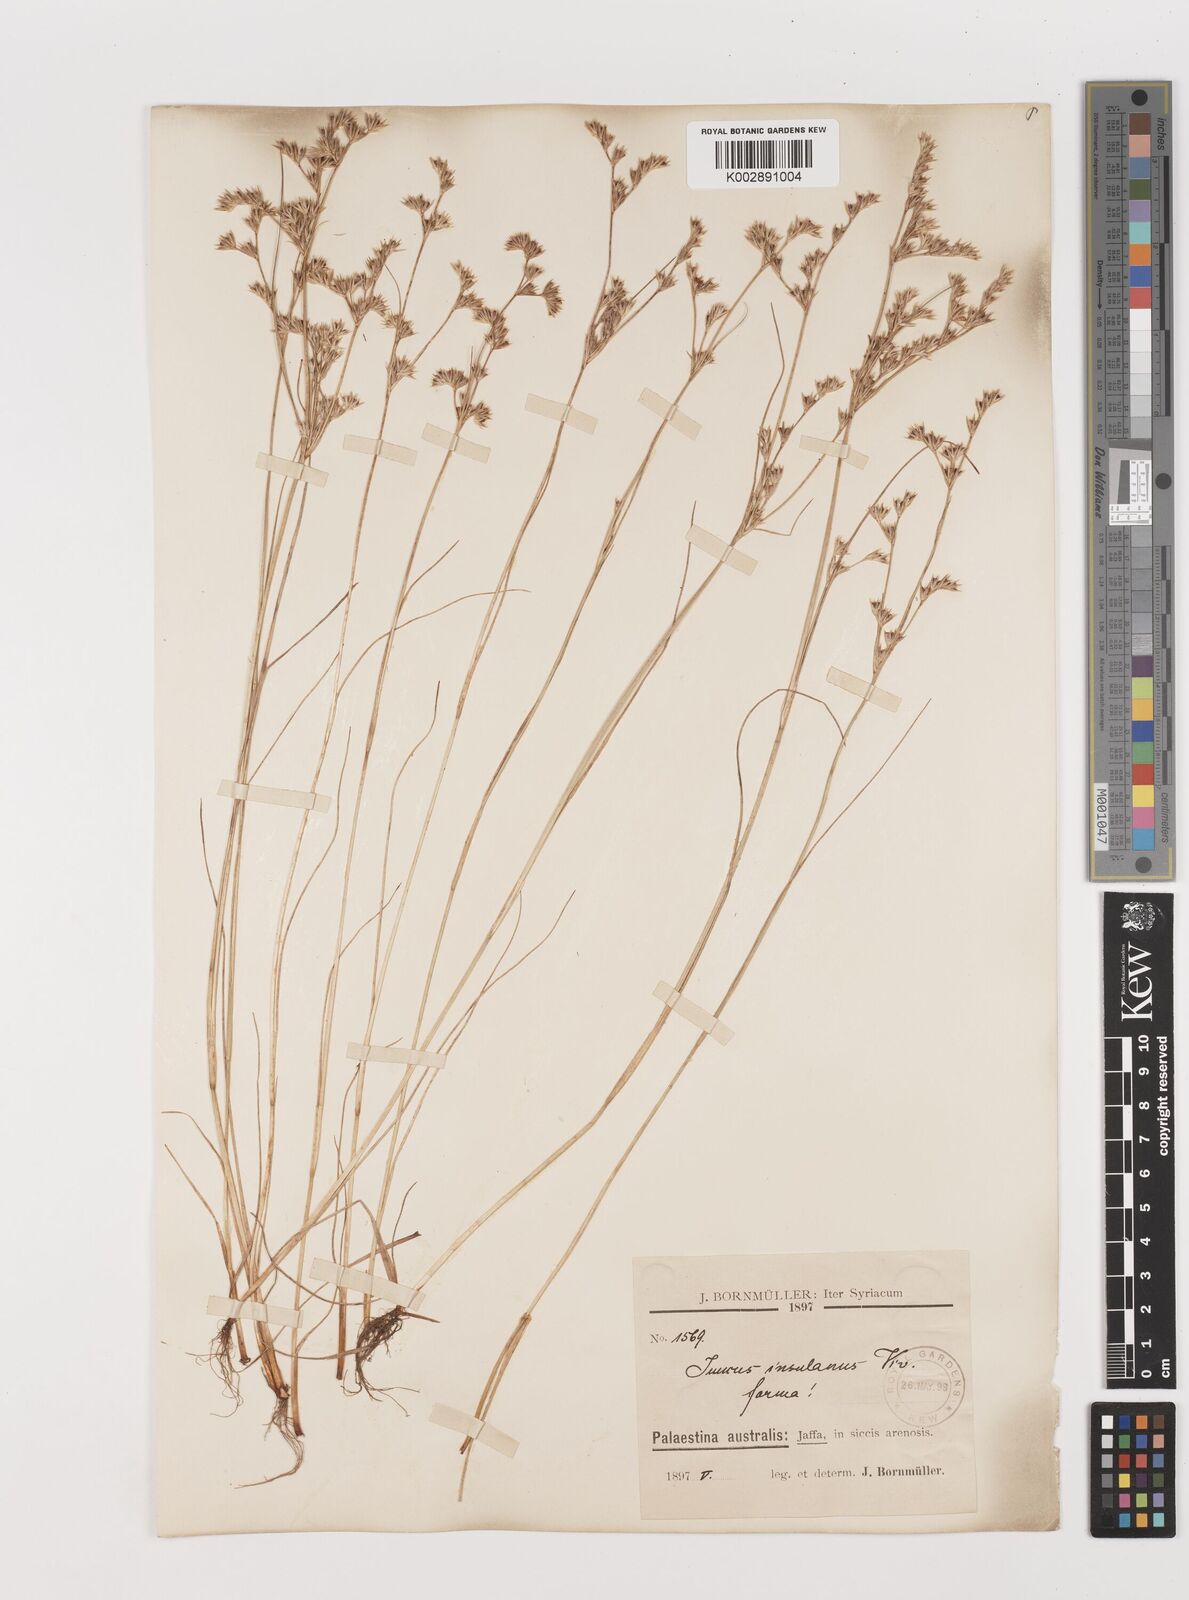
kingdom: Plantae
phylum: Tracheophyta
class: Liliopsida
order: Poales
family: Juncaceae
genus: Juncus
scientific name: Juncus bufonius
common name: Toad rush
